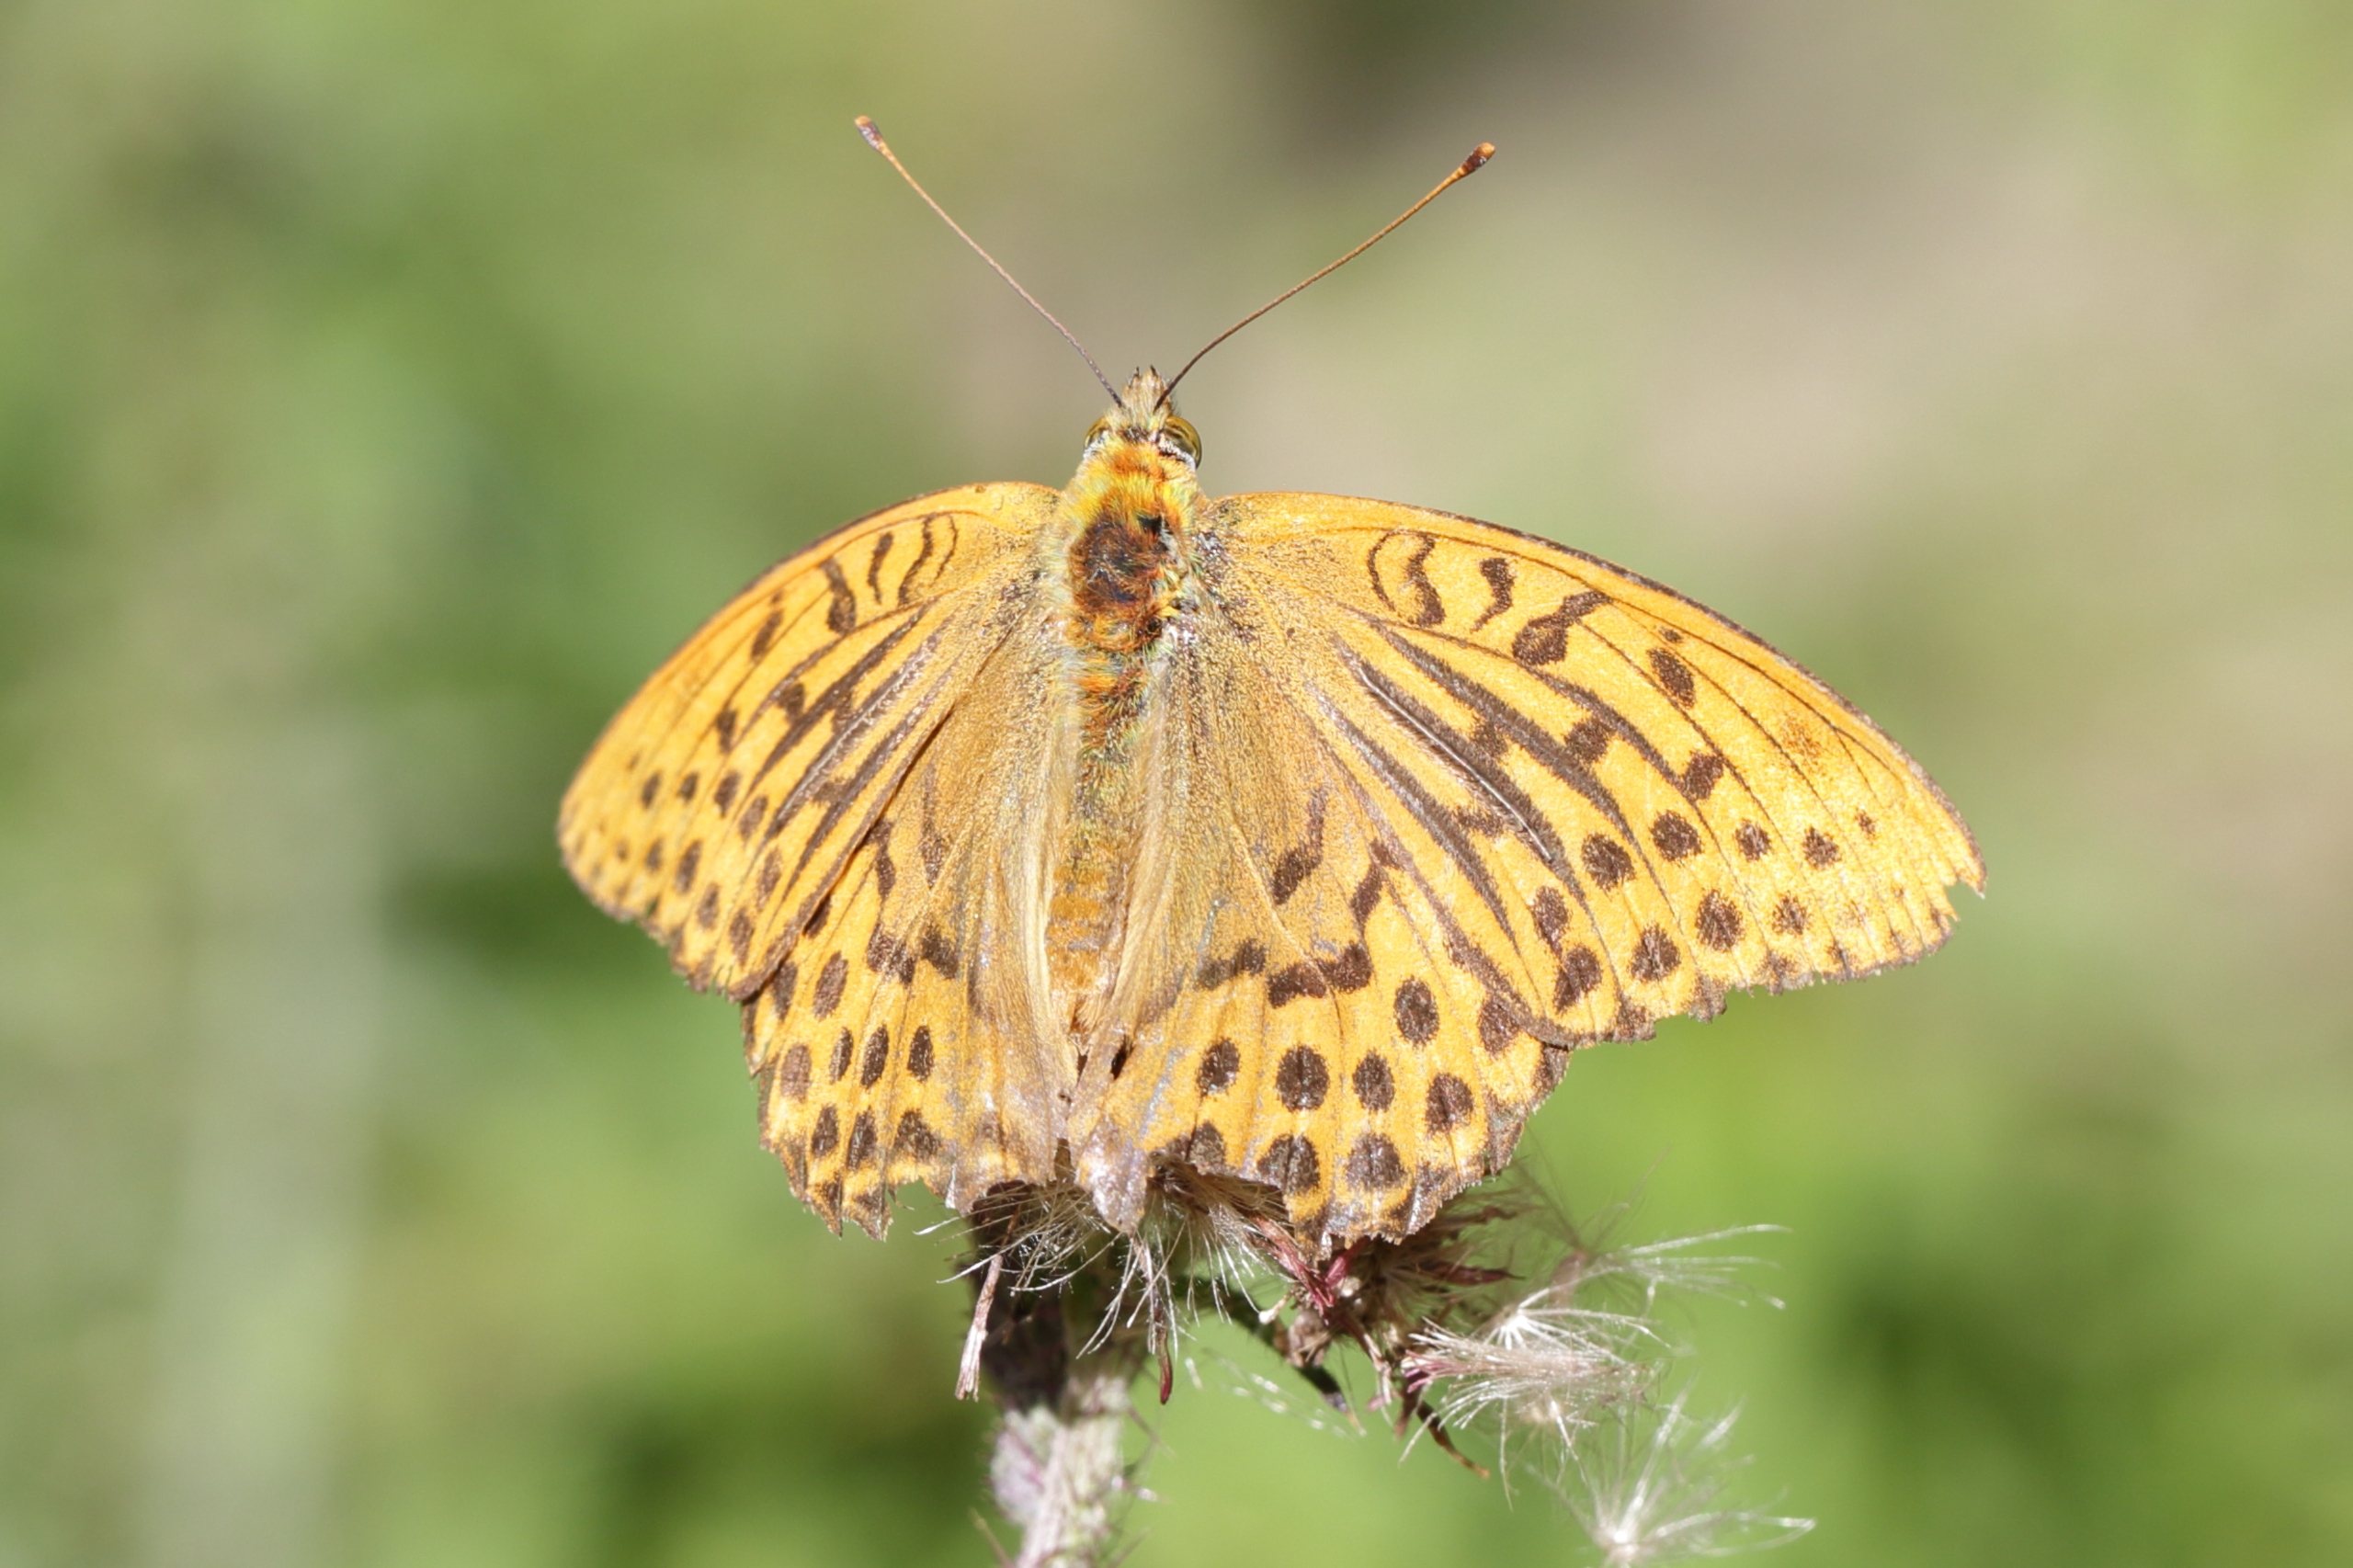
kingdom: Animalia
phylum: Arthropoda
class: Insecta
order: Lepidoptera
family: Nymphalidae
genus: Argynnis
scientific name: Argynnis paphia
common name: Kejserkåbe
